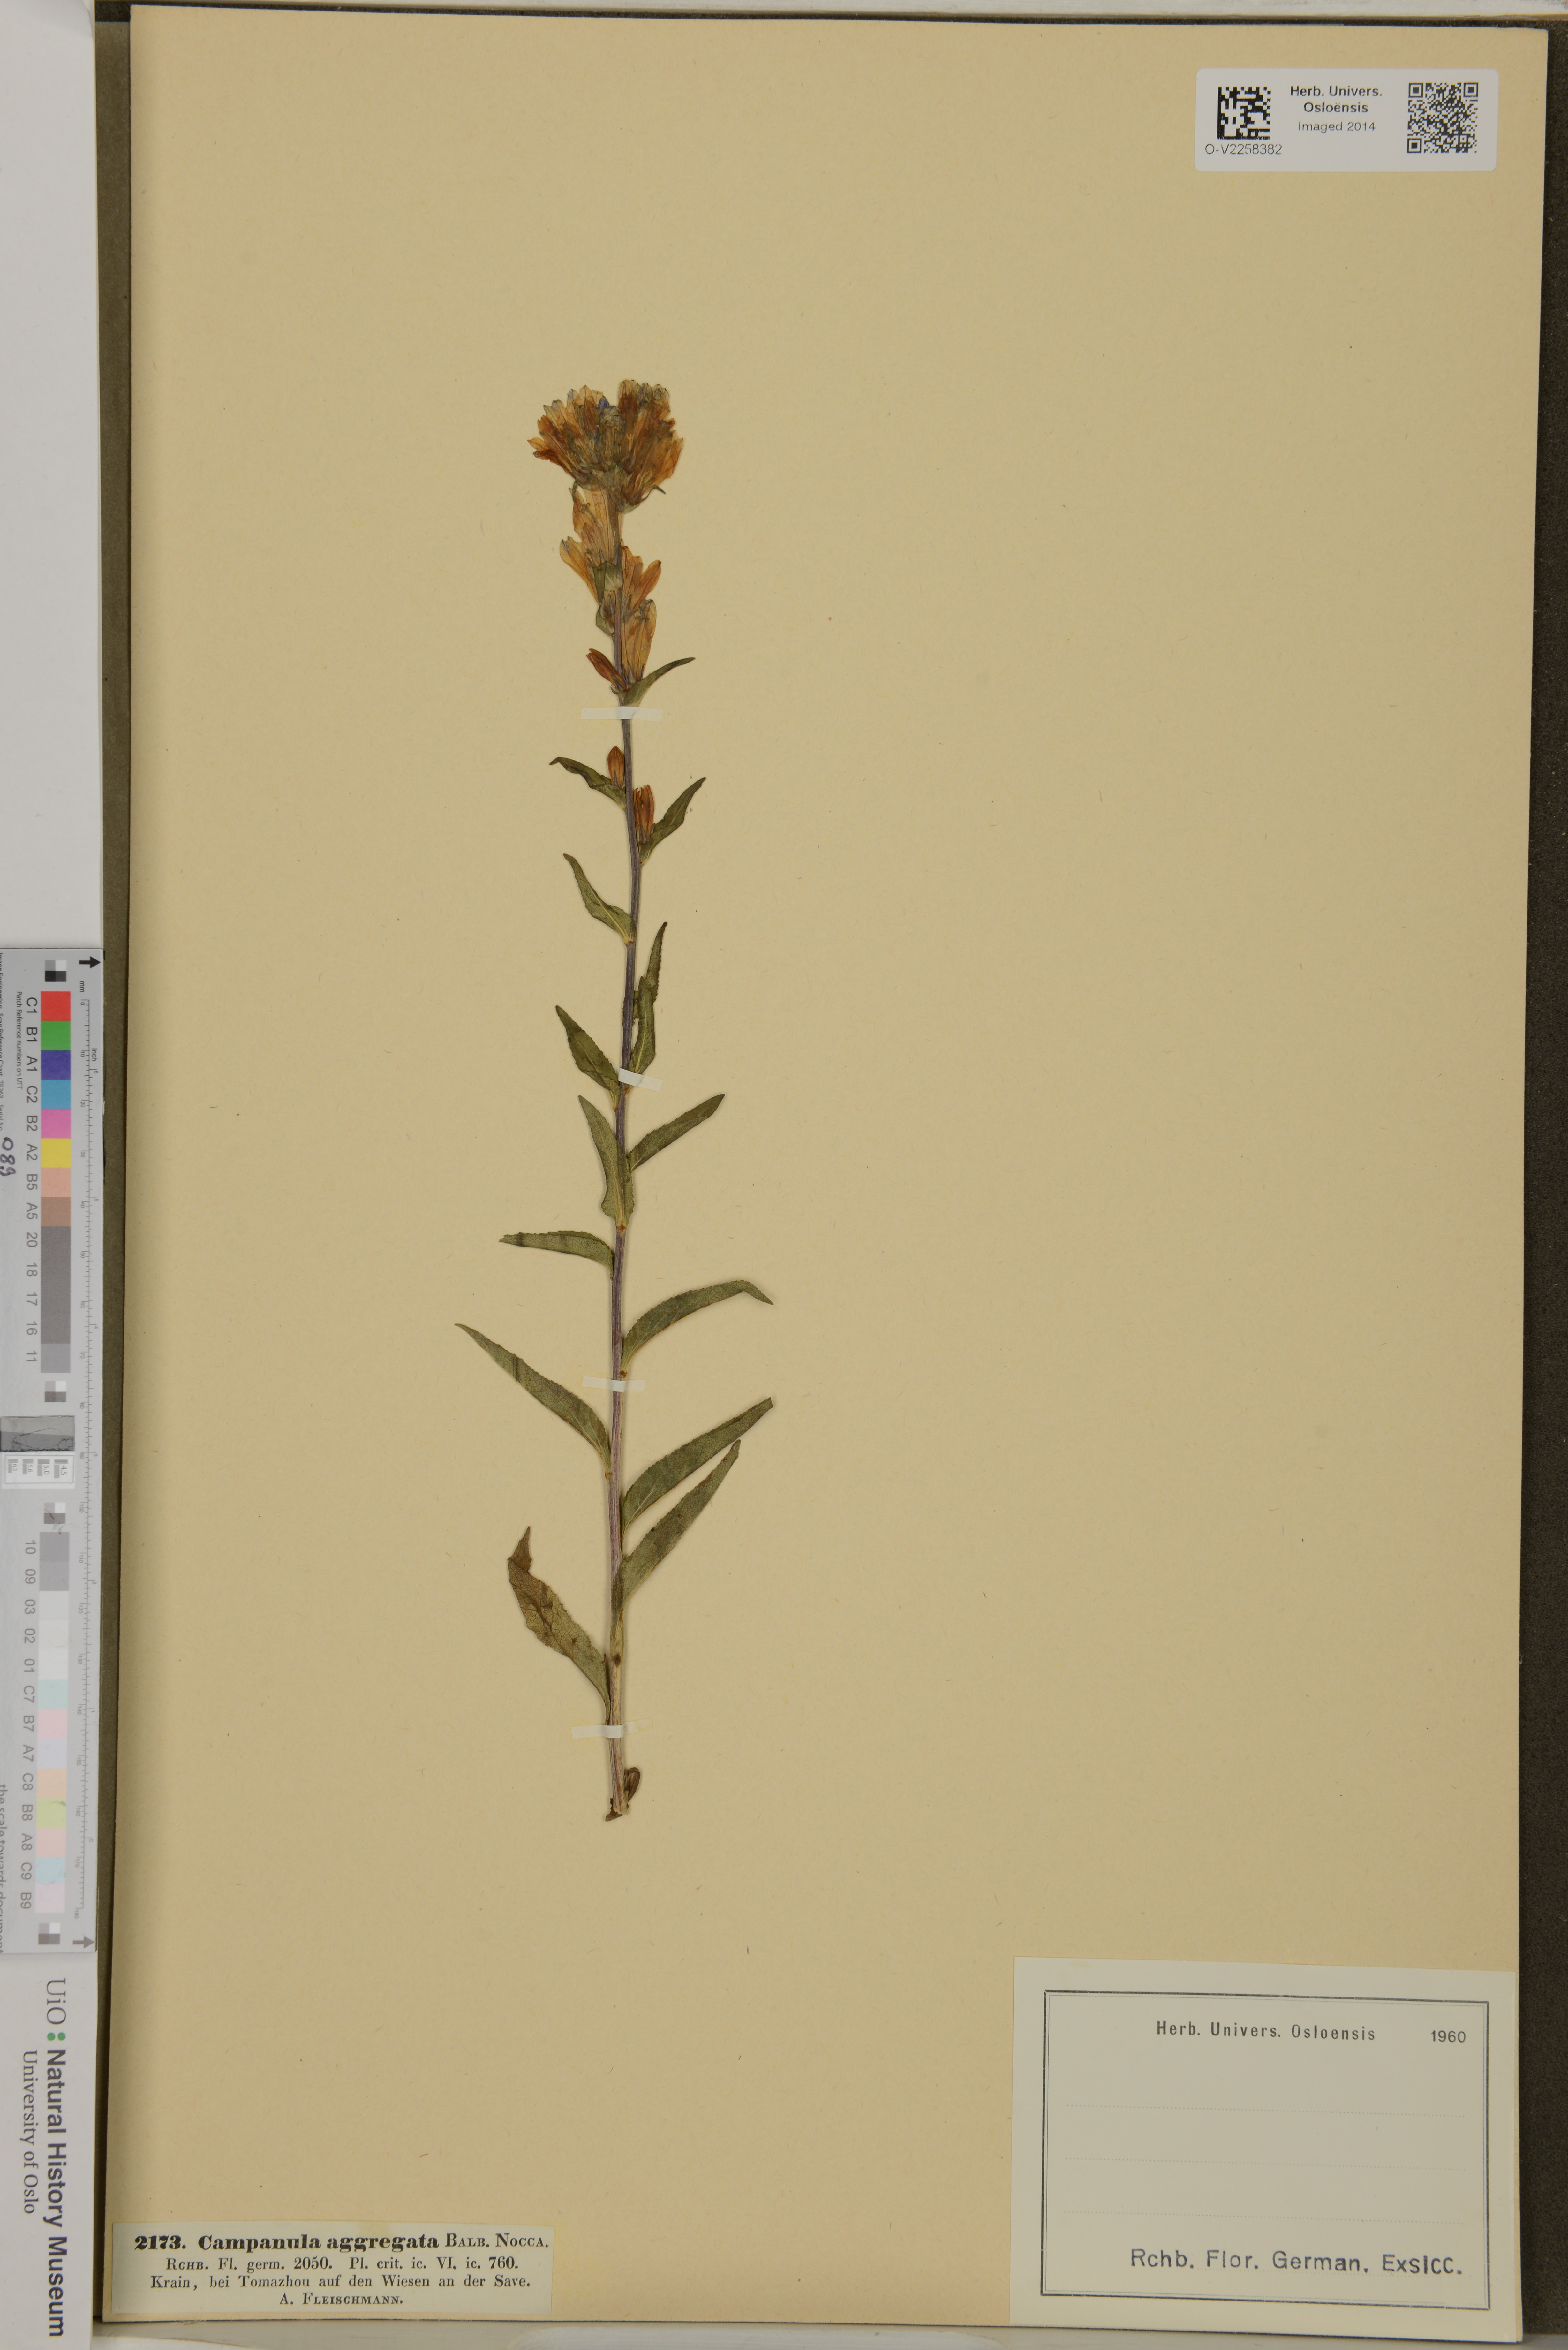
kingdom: Plantae
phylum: Tracheophyta
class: Magnoliopsida
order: Asterales
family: Campanulaceae
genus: Campanula
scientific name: Campanula glomerata
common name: Clustered bellflower
